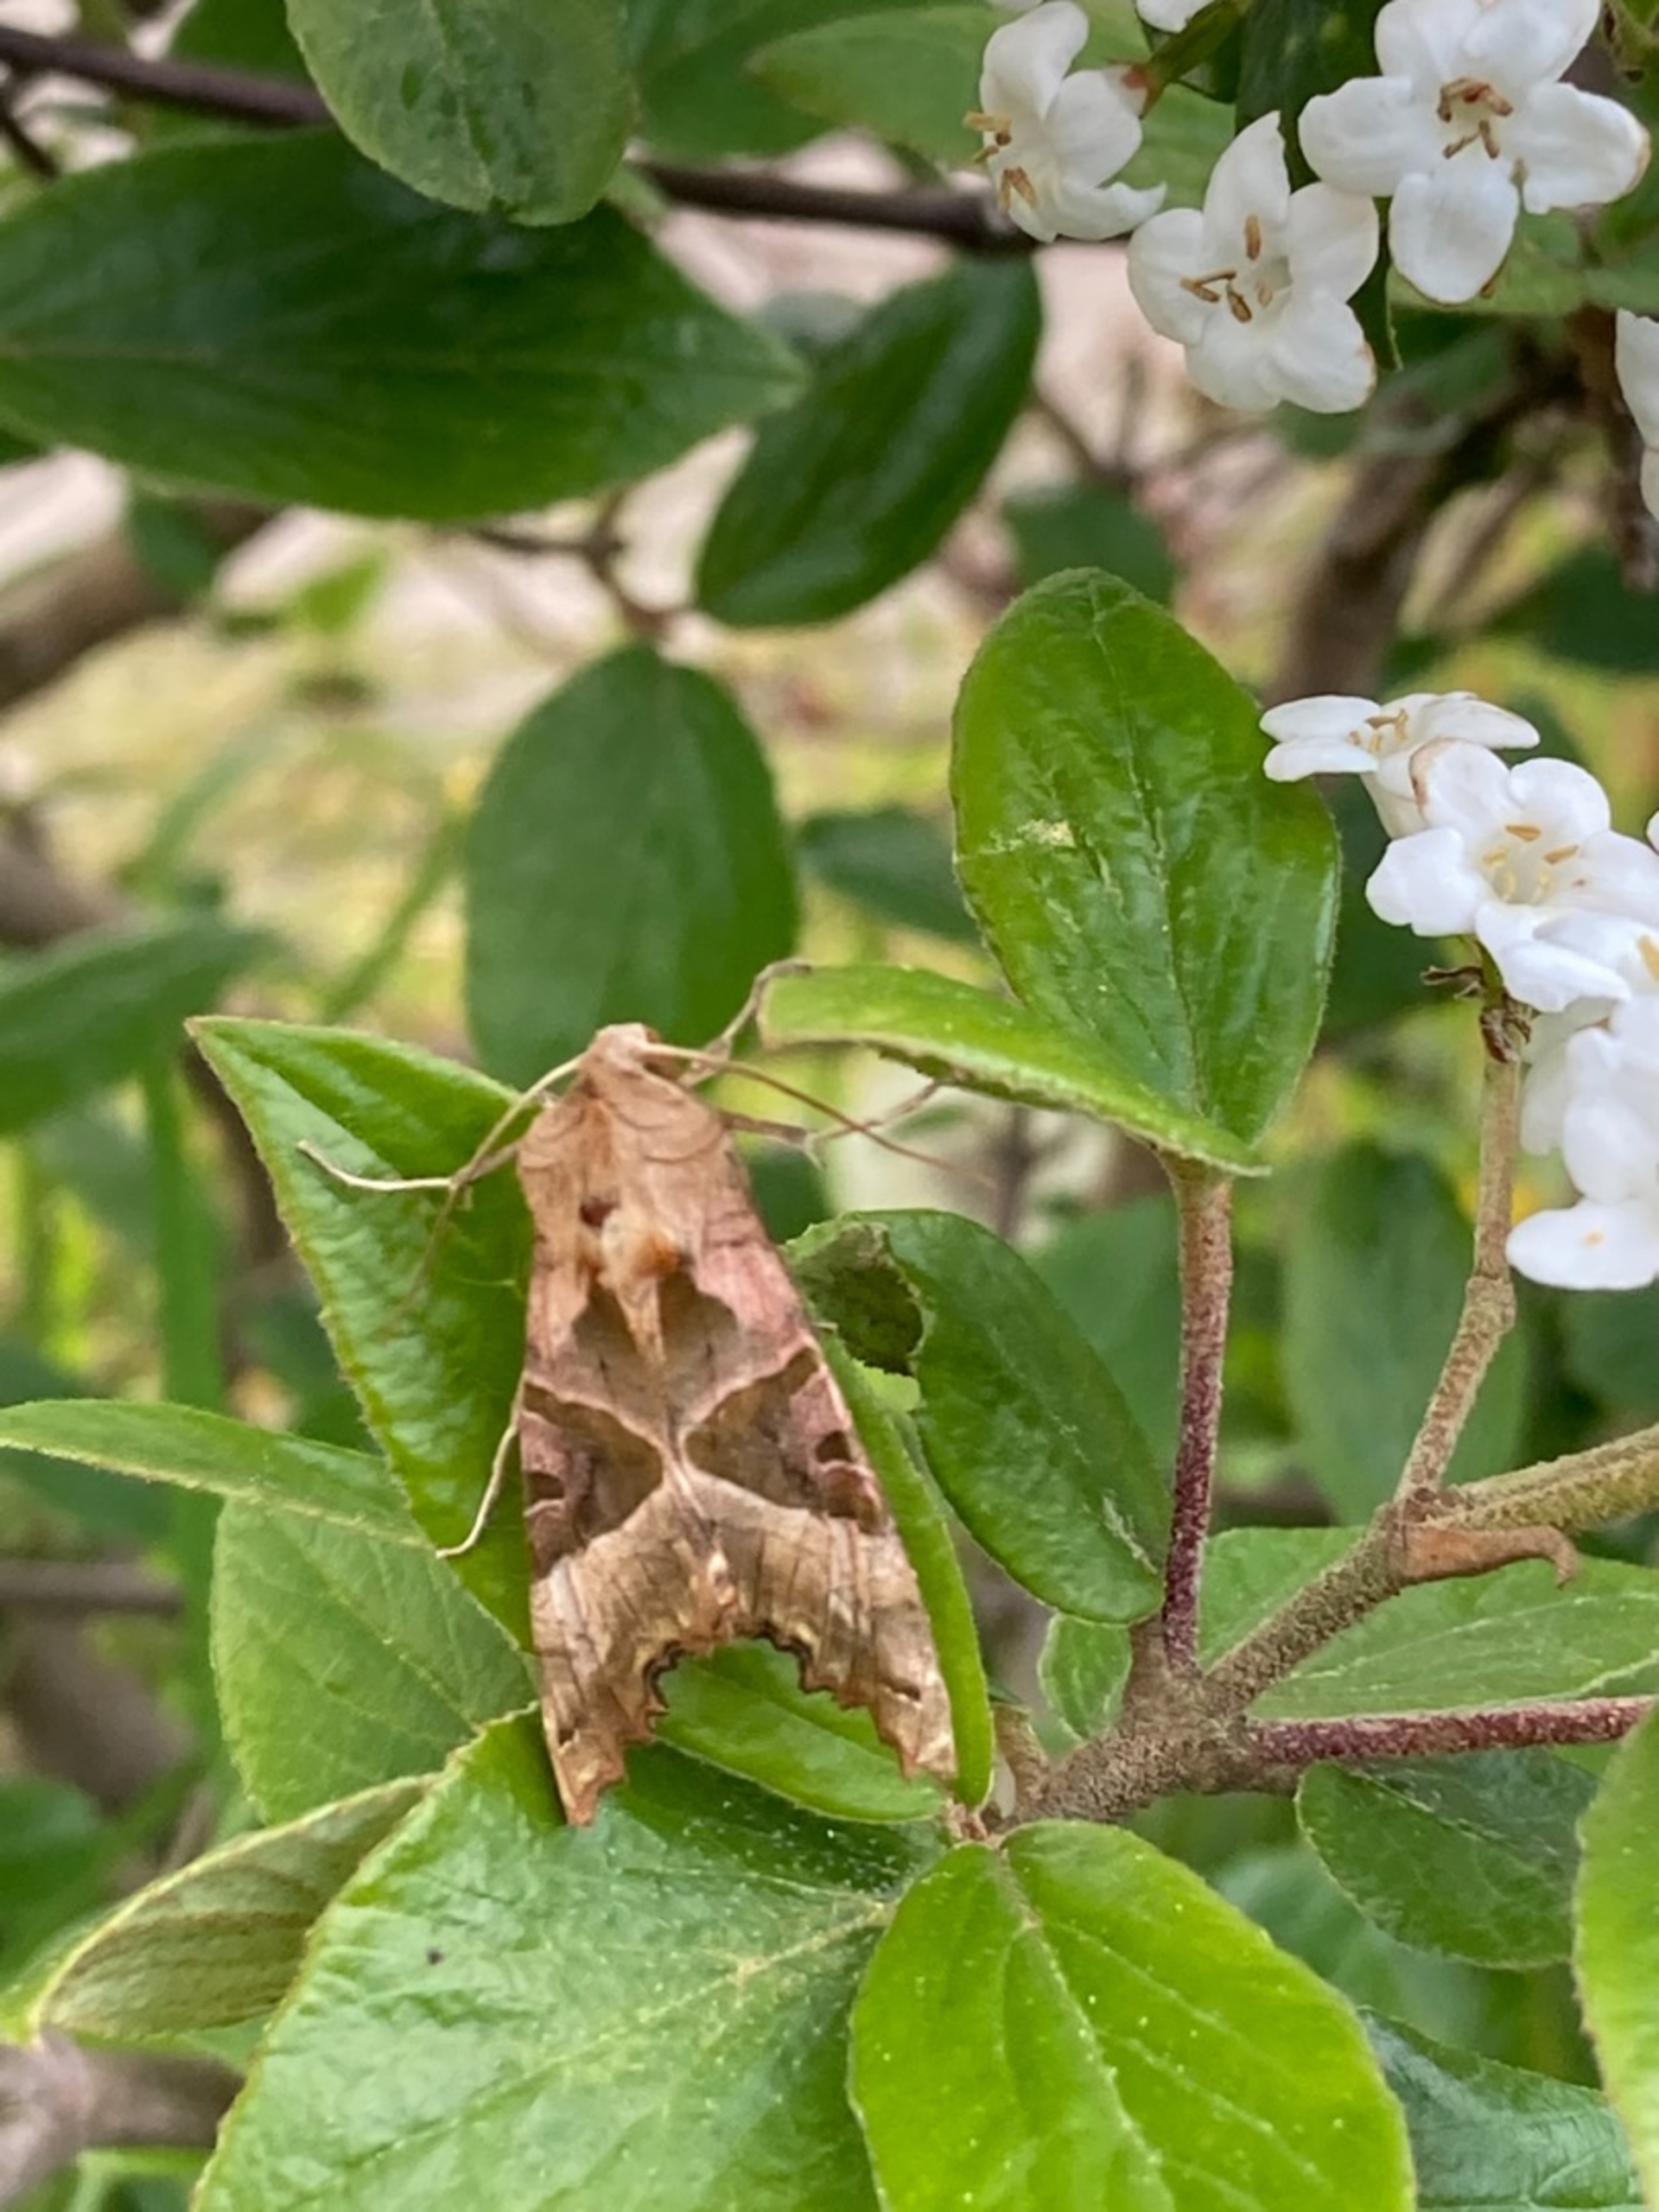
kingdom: Animalia
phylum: Arthropoda
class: Insecta
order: Lepidoptera
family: Noctuidae
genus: Phlogophora
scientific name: Phlogophora meticulosa
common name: Agatugle
